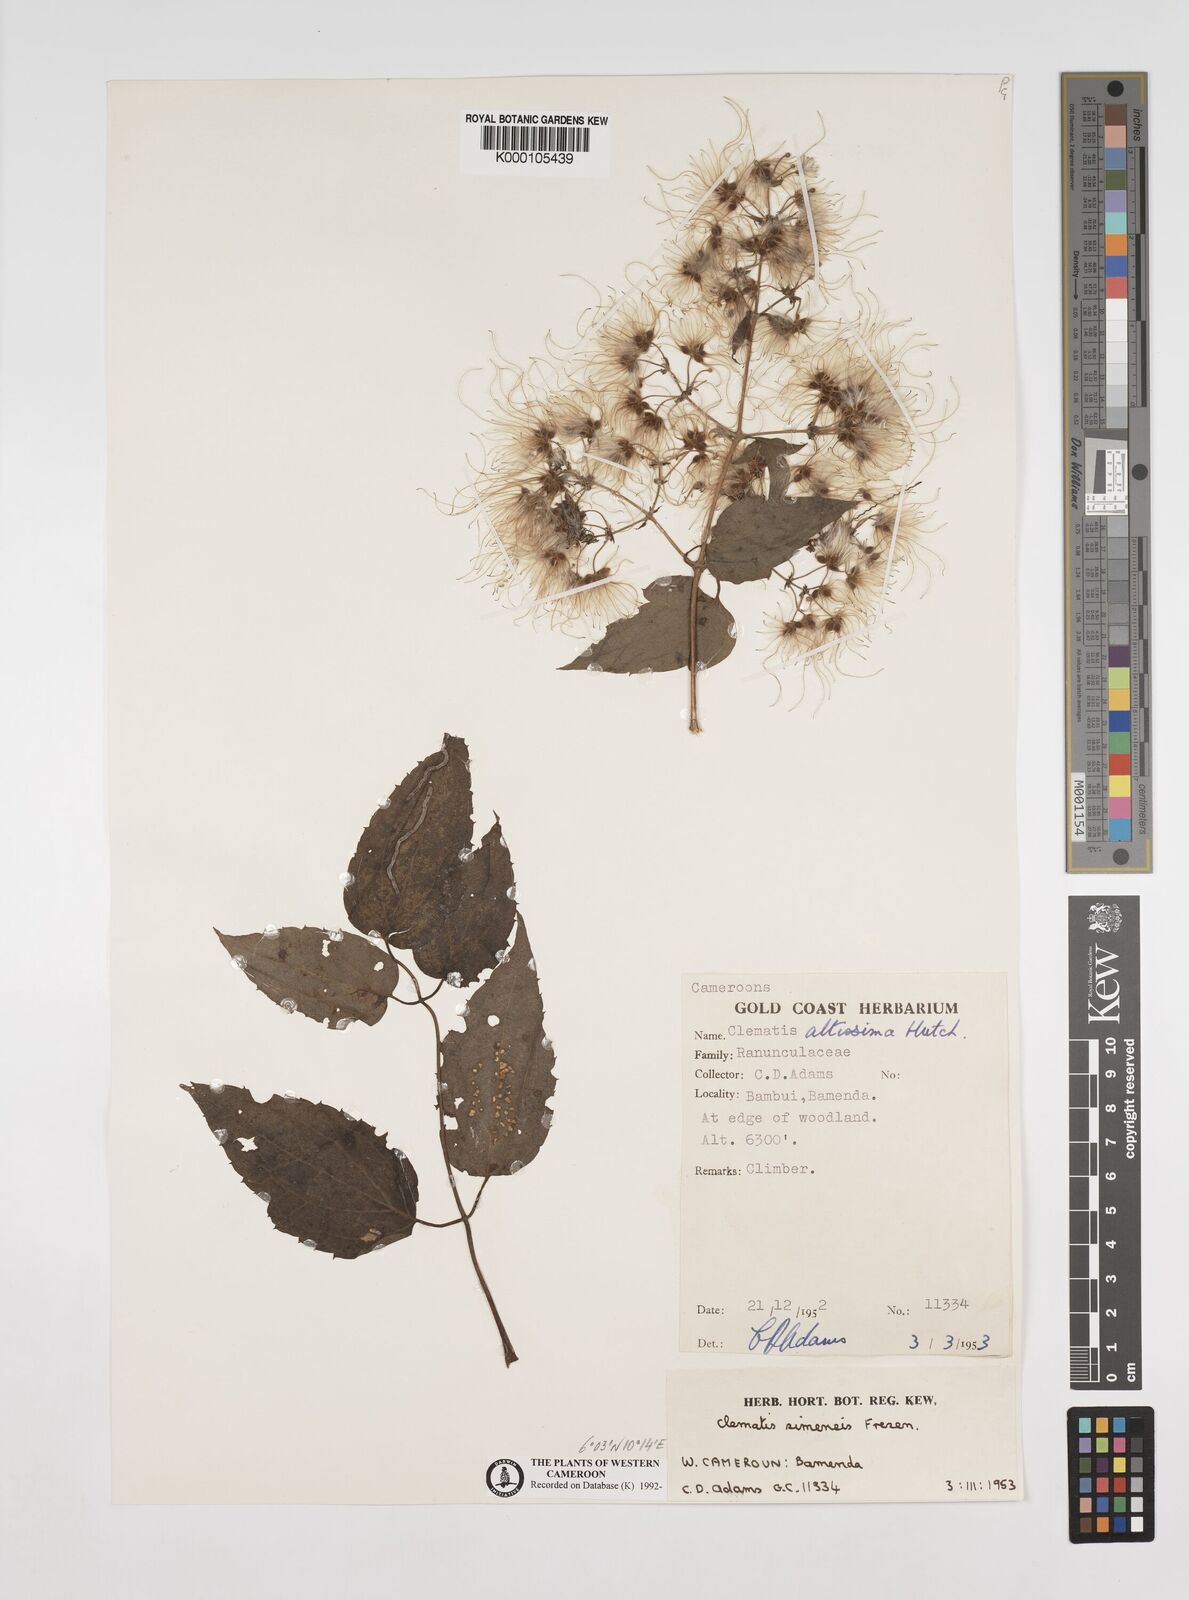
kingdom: Plantae
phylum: Tracheophyta
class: Magnoliopsida
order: Ranunculales
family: Ranunculaceae
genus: Clematis
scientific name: Clematis simensis
